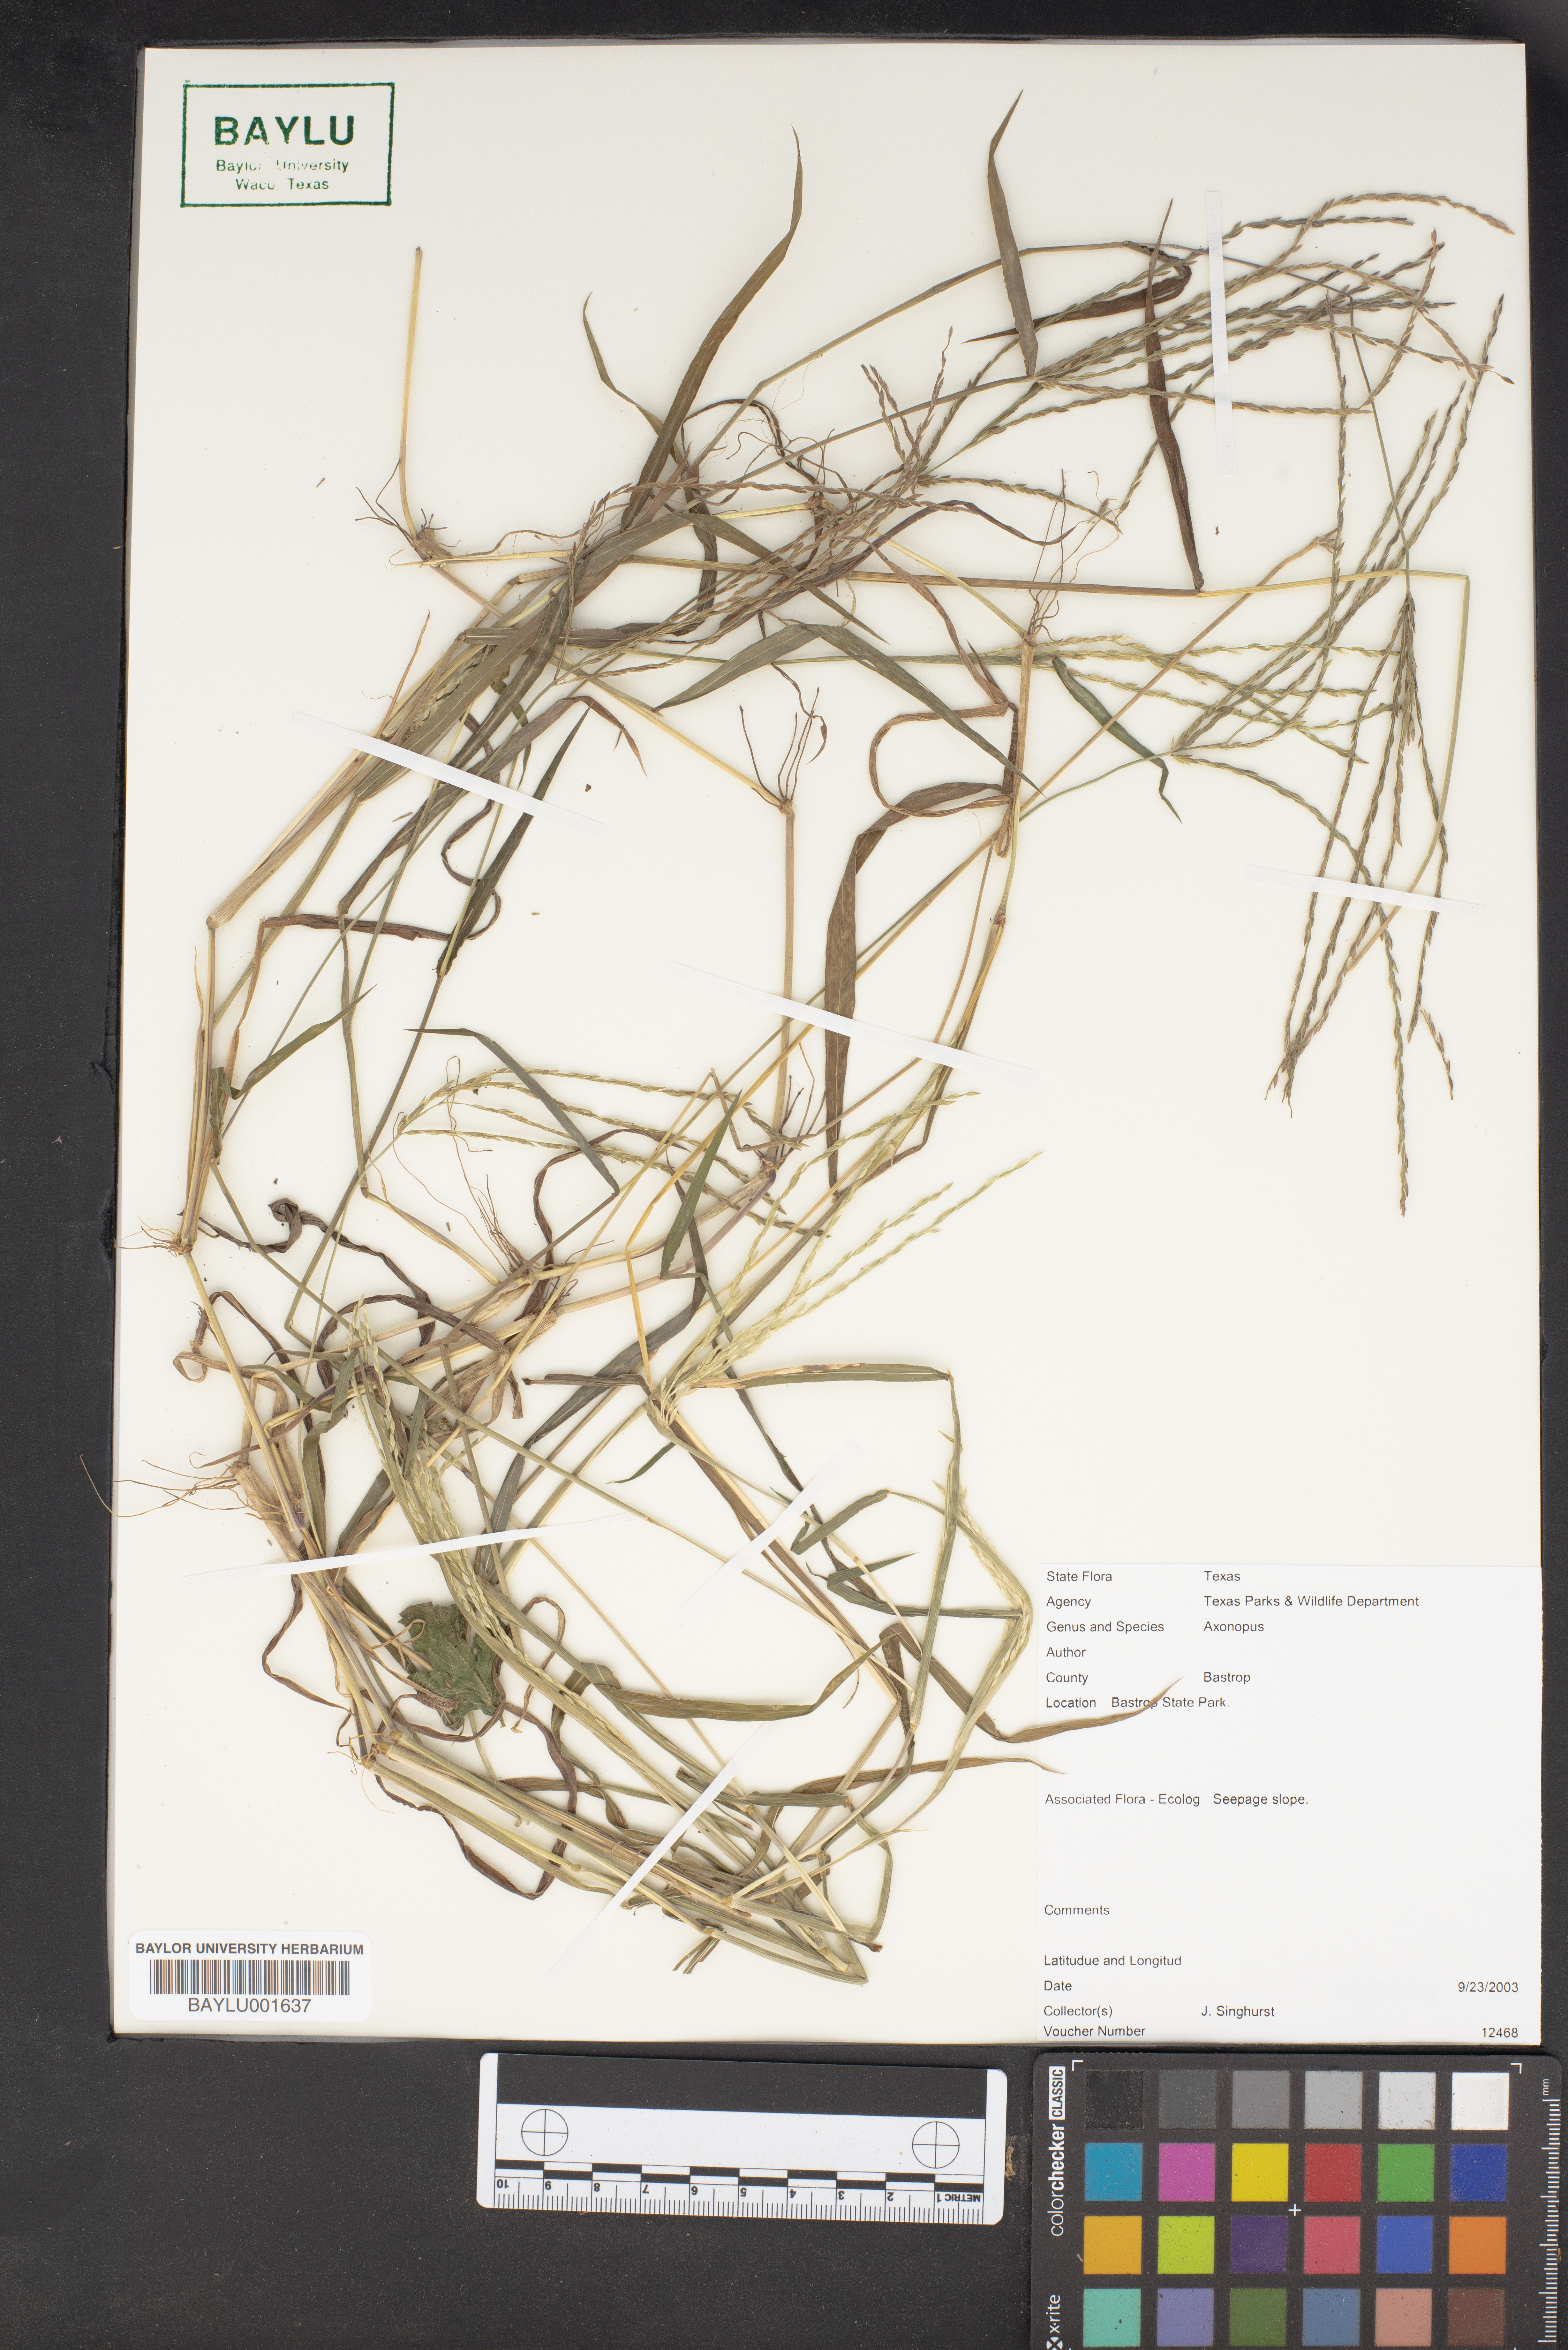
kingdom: Plantae
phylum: Tracheophyta
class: Liliopsida
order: Poales
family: Poaceae
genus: Axonopus
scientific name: Axonopus
